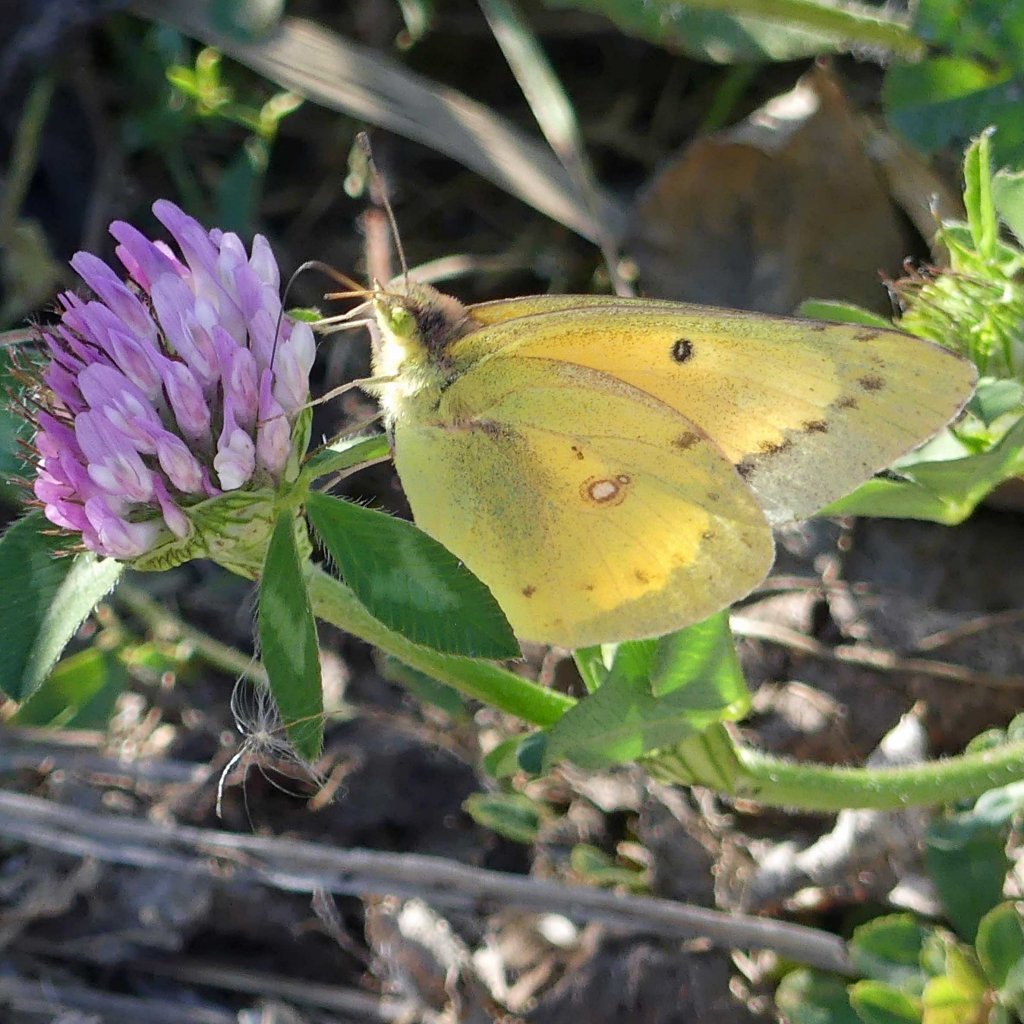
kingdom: Animalia
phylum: Arthropoda
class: Insecta
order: Lepidoptera
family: Pieridae
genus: Colias
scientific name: Colias eurytheme
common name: Orange Sulphur
